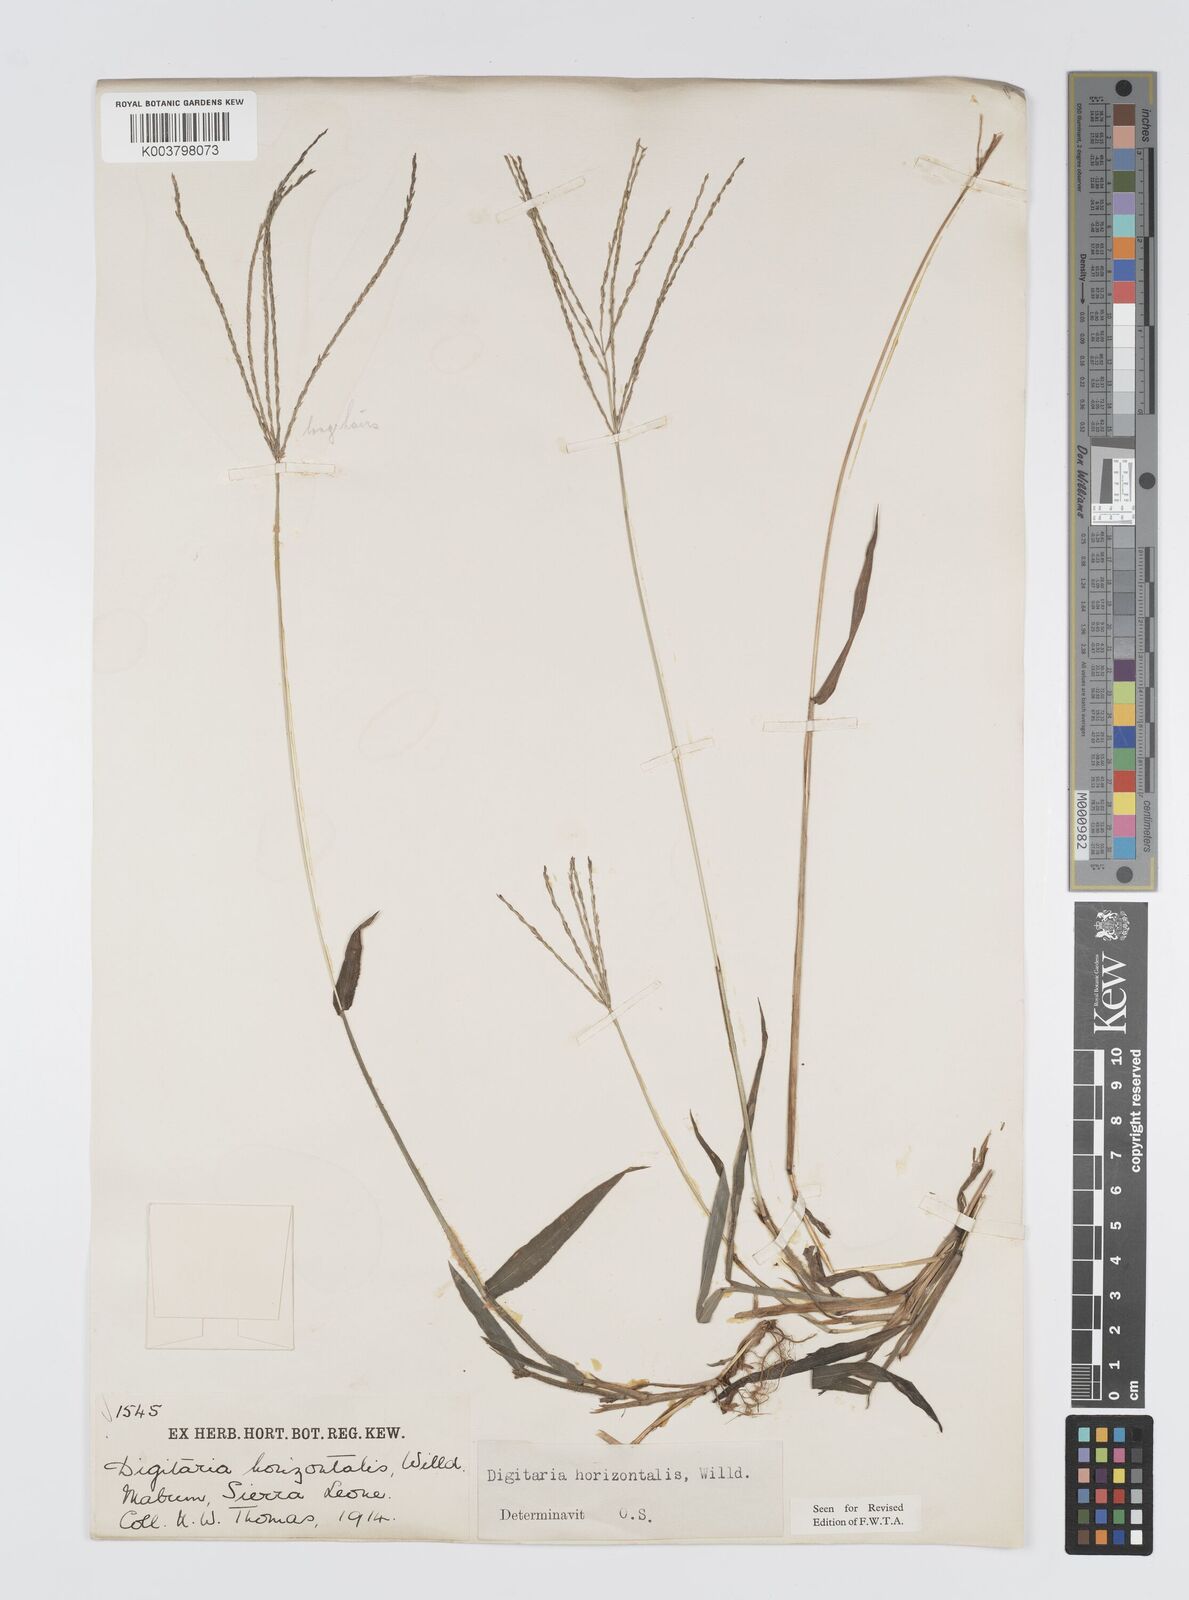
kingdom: Plantae
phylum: Tracheophyta
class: Liliopsida
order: Poales
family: Poaceae
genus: Digitaria
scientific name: Digitaria horizontalis
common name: Jamaican crabgrass
